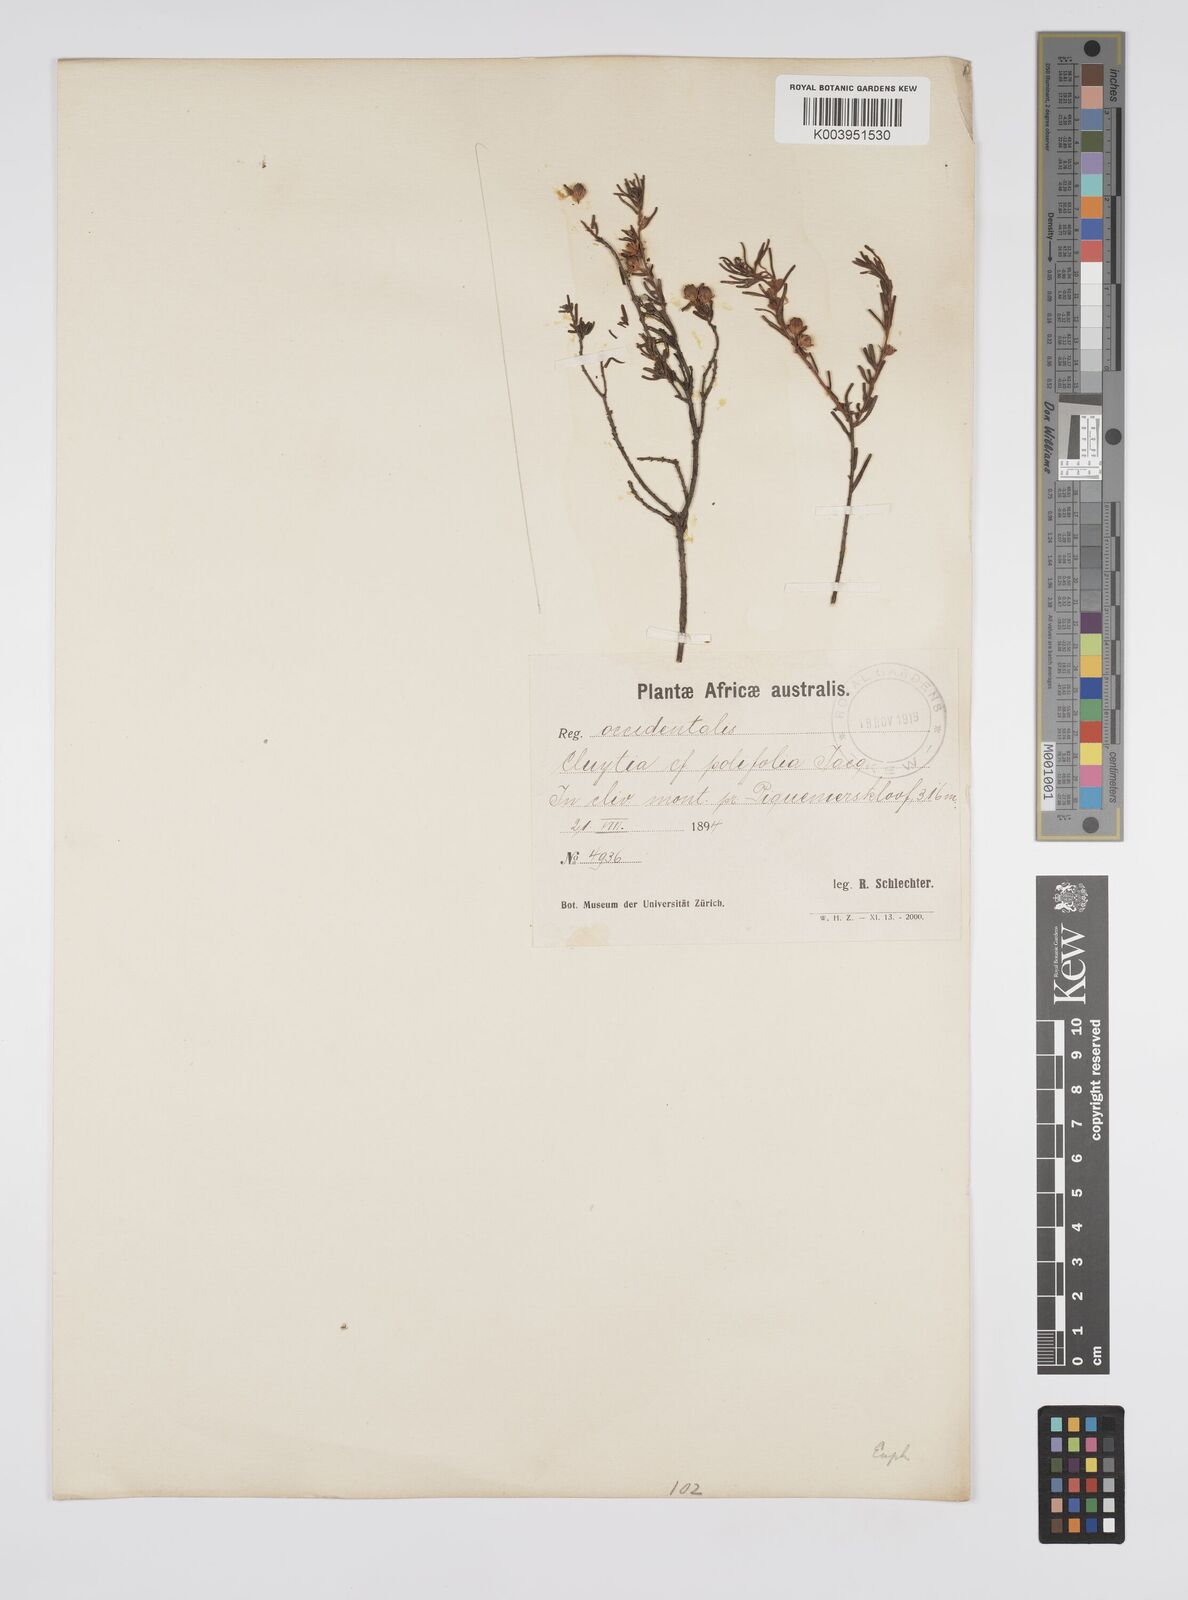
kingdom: Plantae
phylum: Tracheophyta
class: Magnoliopsida
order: Malpighiales
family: Peraceae
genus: Clutia
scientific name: Clutia
